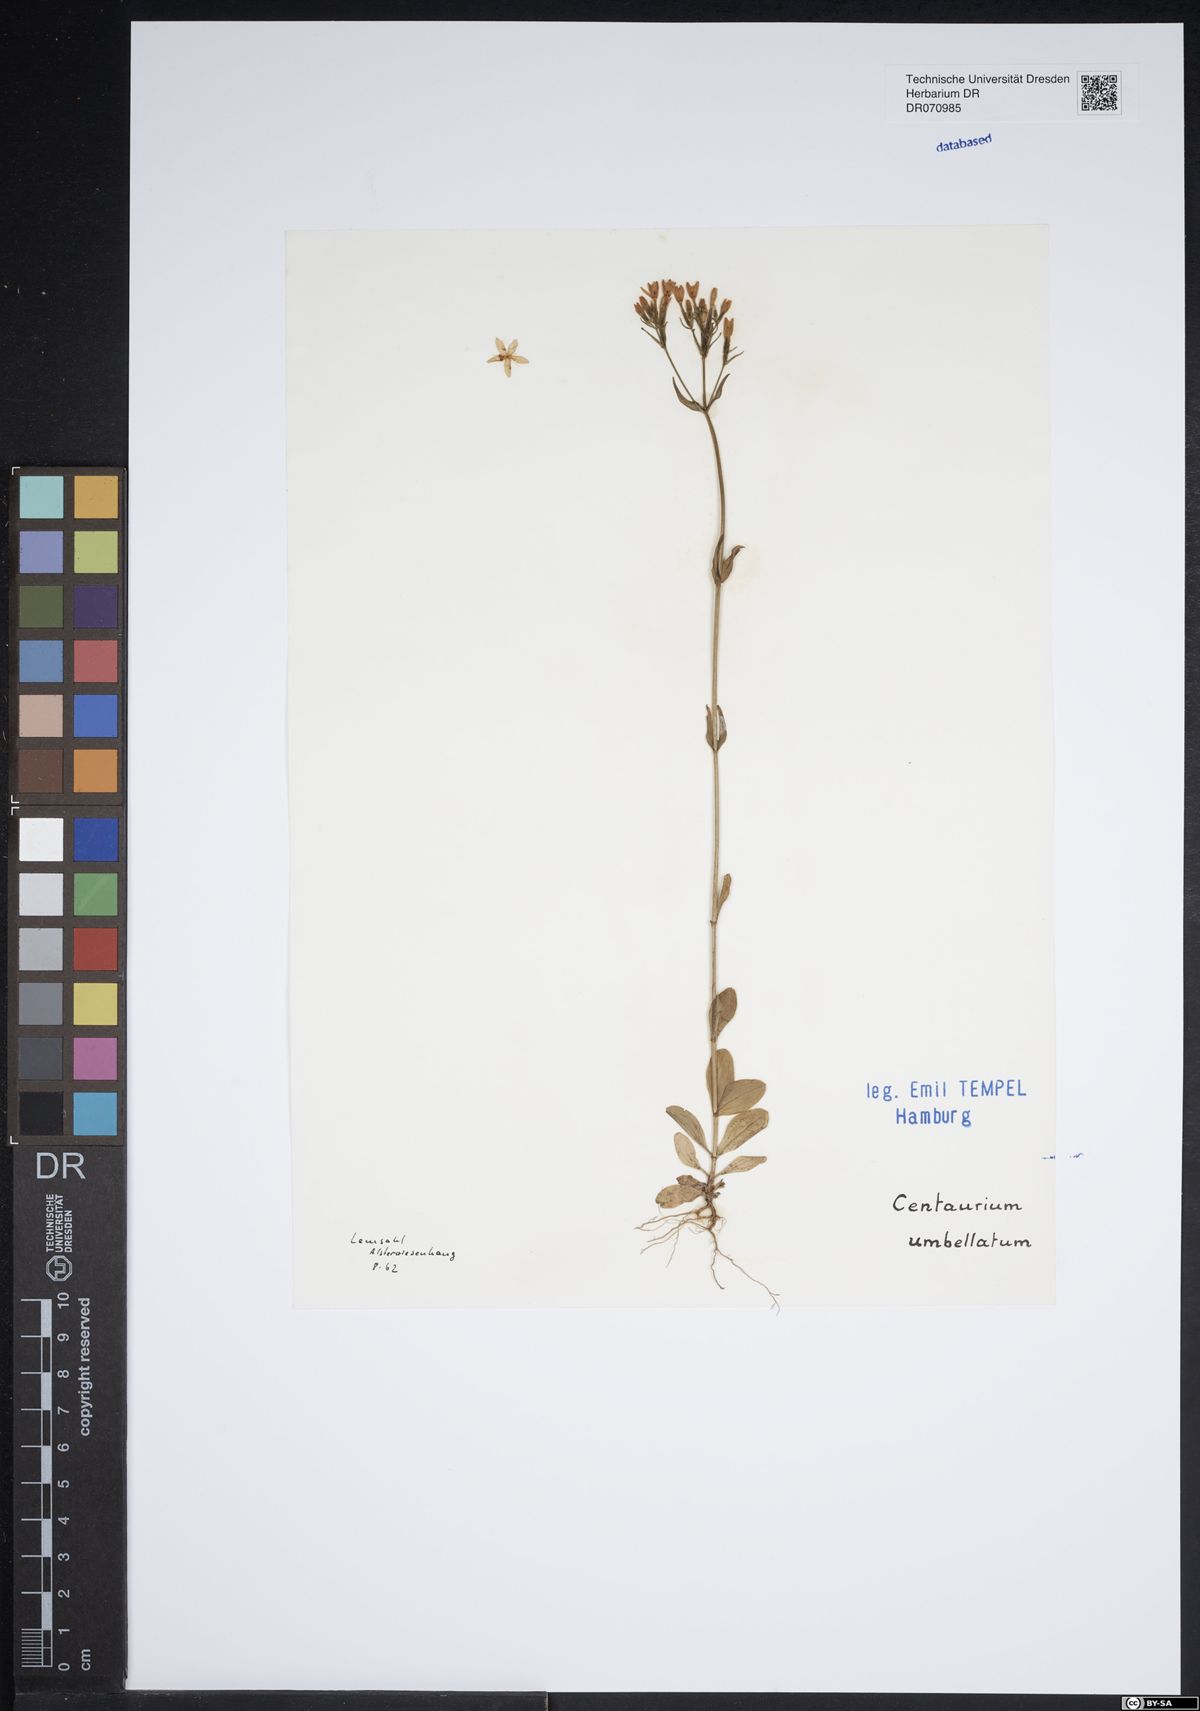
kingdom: Plantae
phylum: Tracheophyta
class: Magnoliopsida
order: Gentianales
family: Gentianaceae
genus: Centaurium
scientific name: Centaurium erythraea
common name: Common centaury
